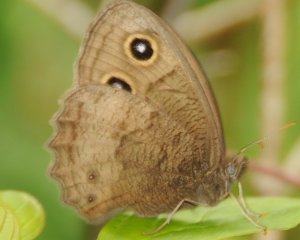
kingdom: Animalia
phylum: Arthropoda
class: Insecta
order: Lepidoptera
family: Nymphalidae
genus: Cercyonis
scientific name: Cercyonis pegala
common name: Common Wood-Nymph
